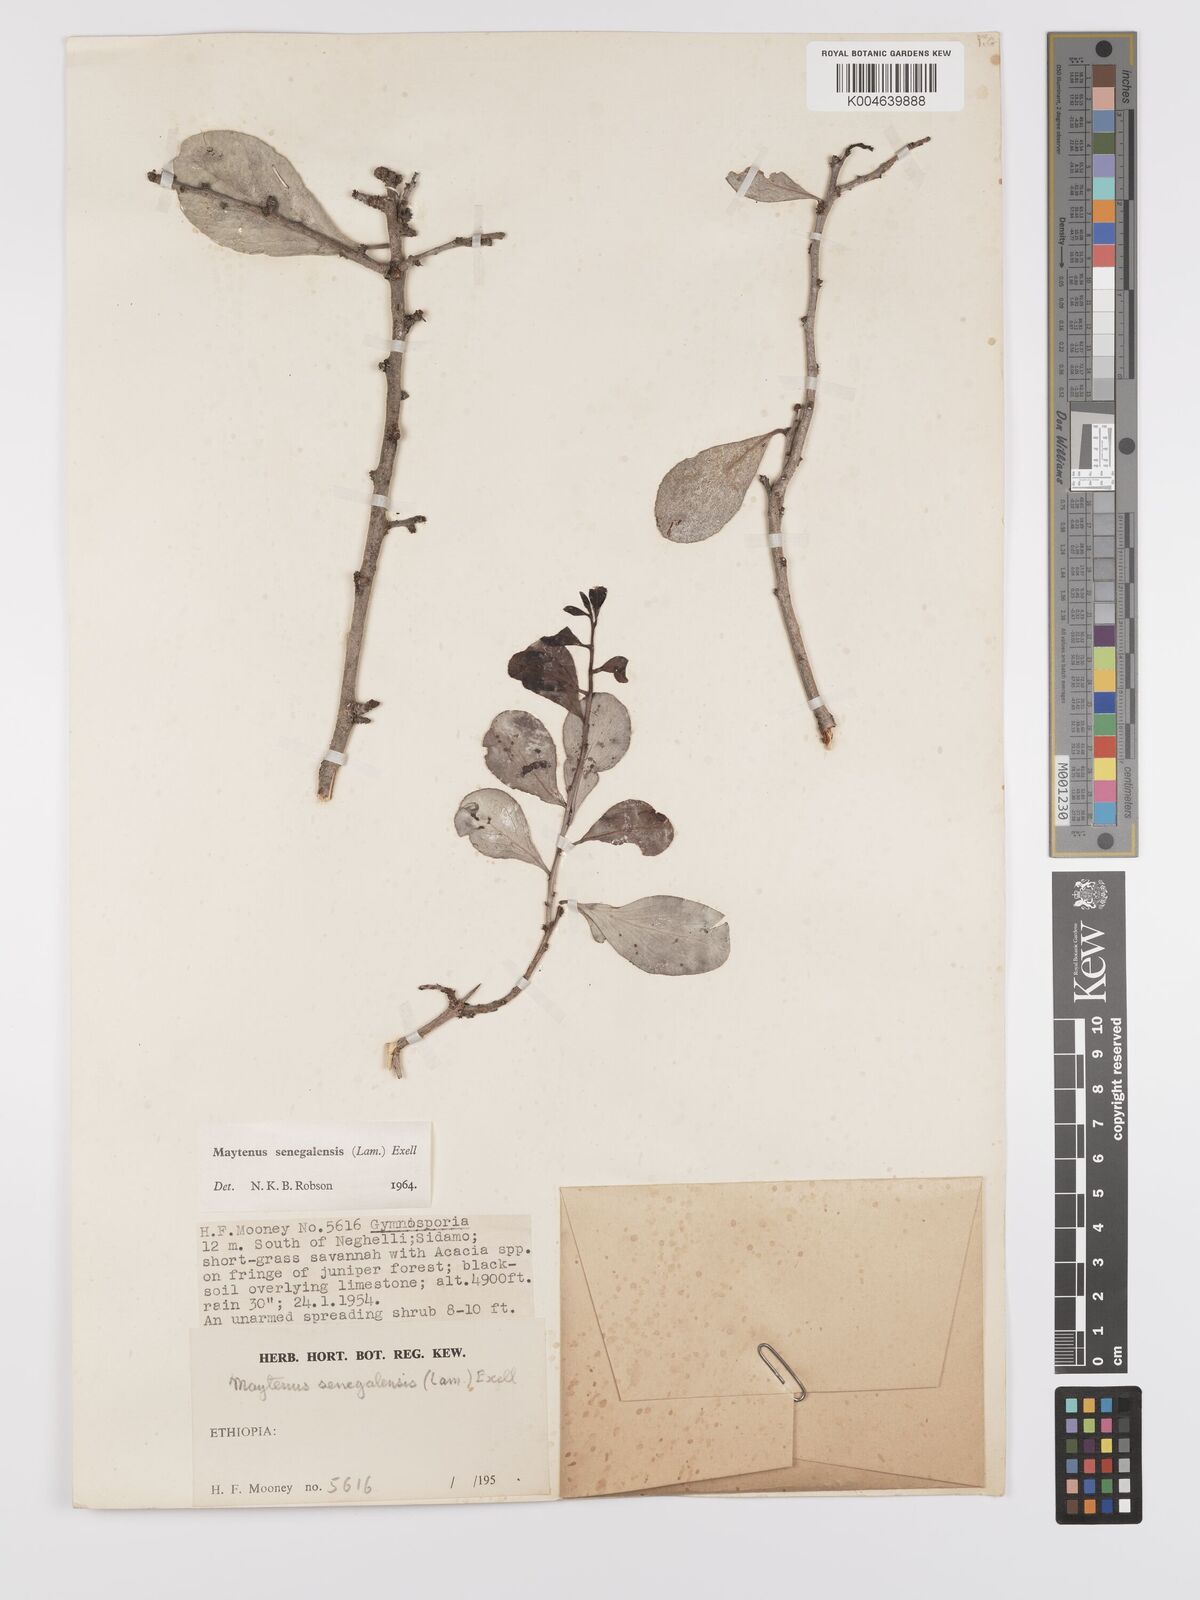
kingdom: Plantae
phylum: Tracheophyta
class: Magnoliopsida
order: Celastrales
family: Celastraceae
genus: Gymnosporia
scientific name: Gymnosporia senegalensis
